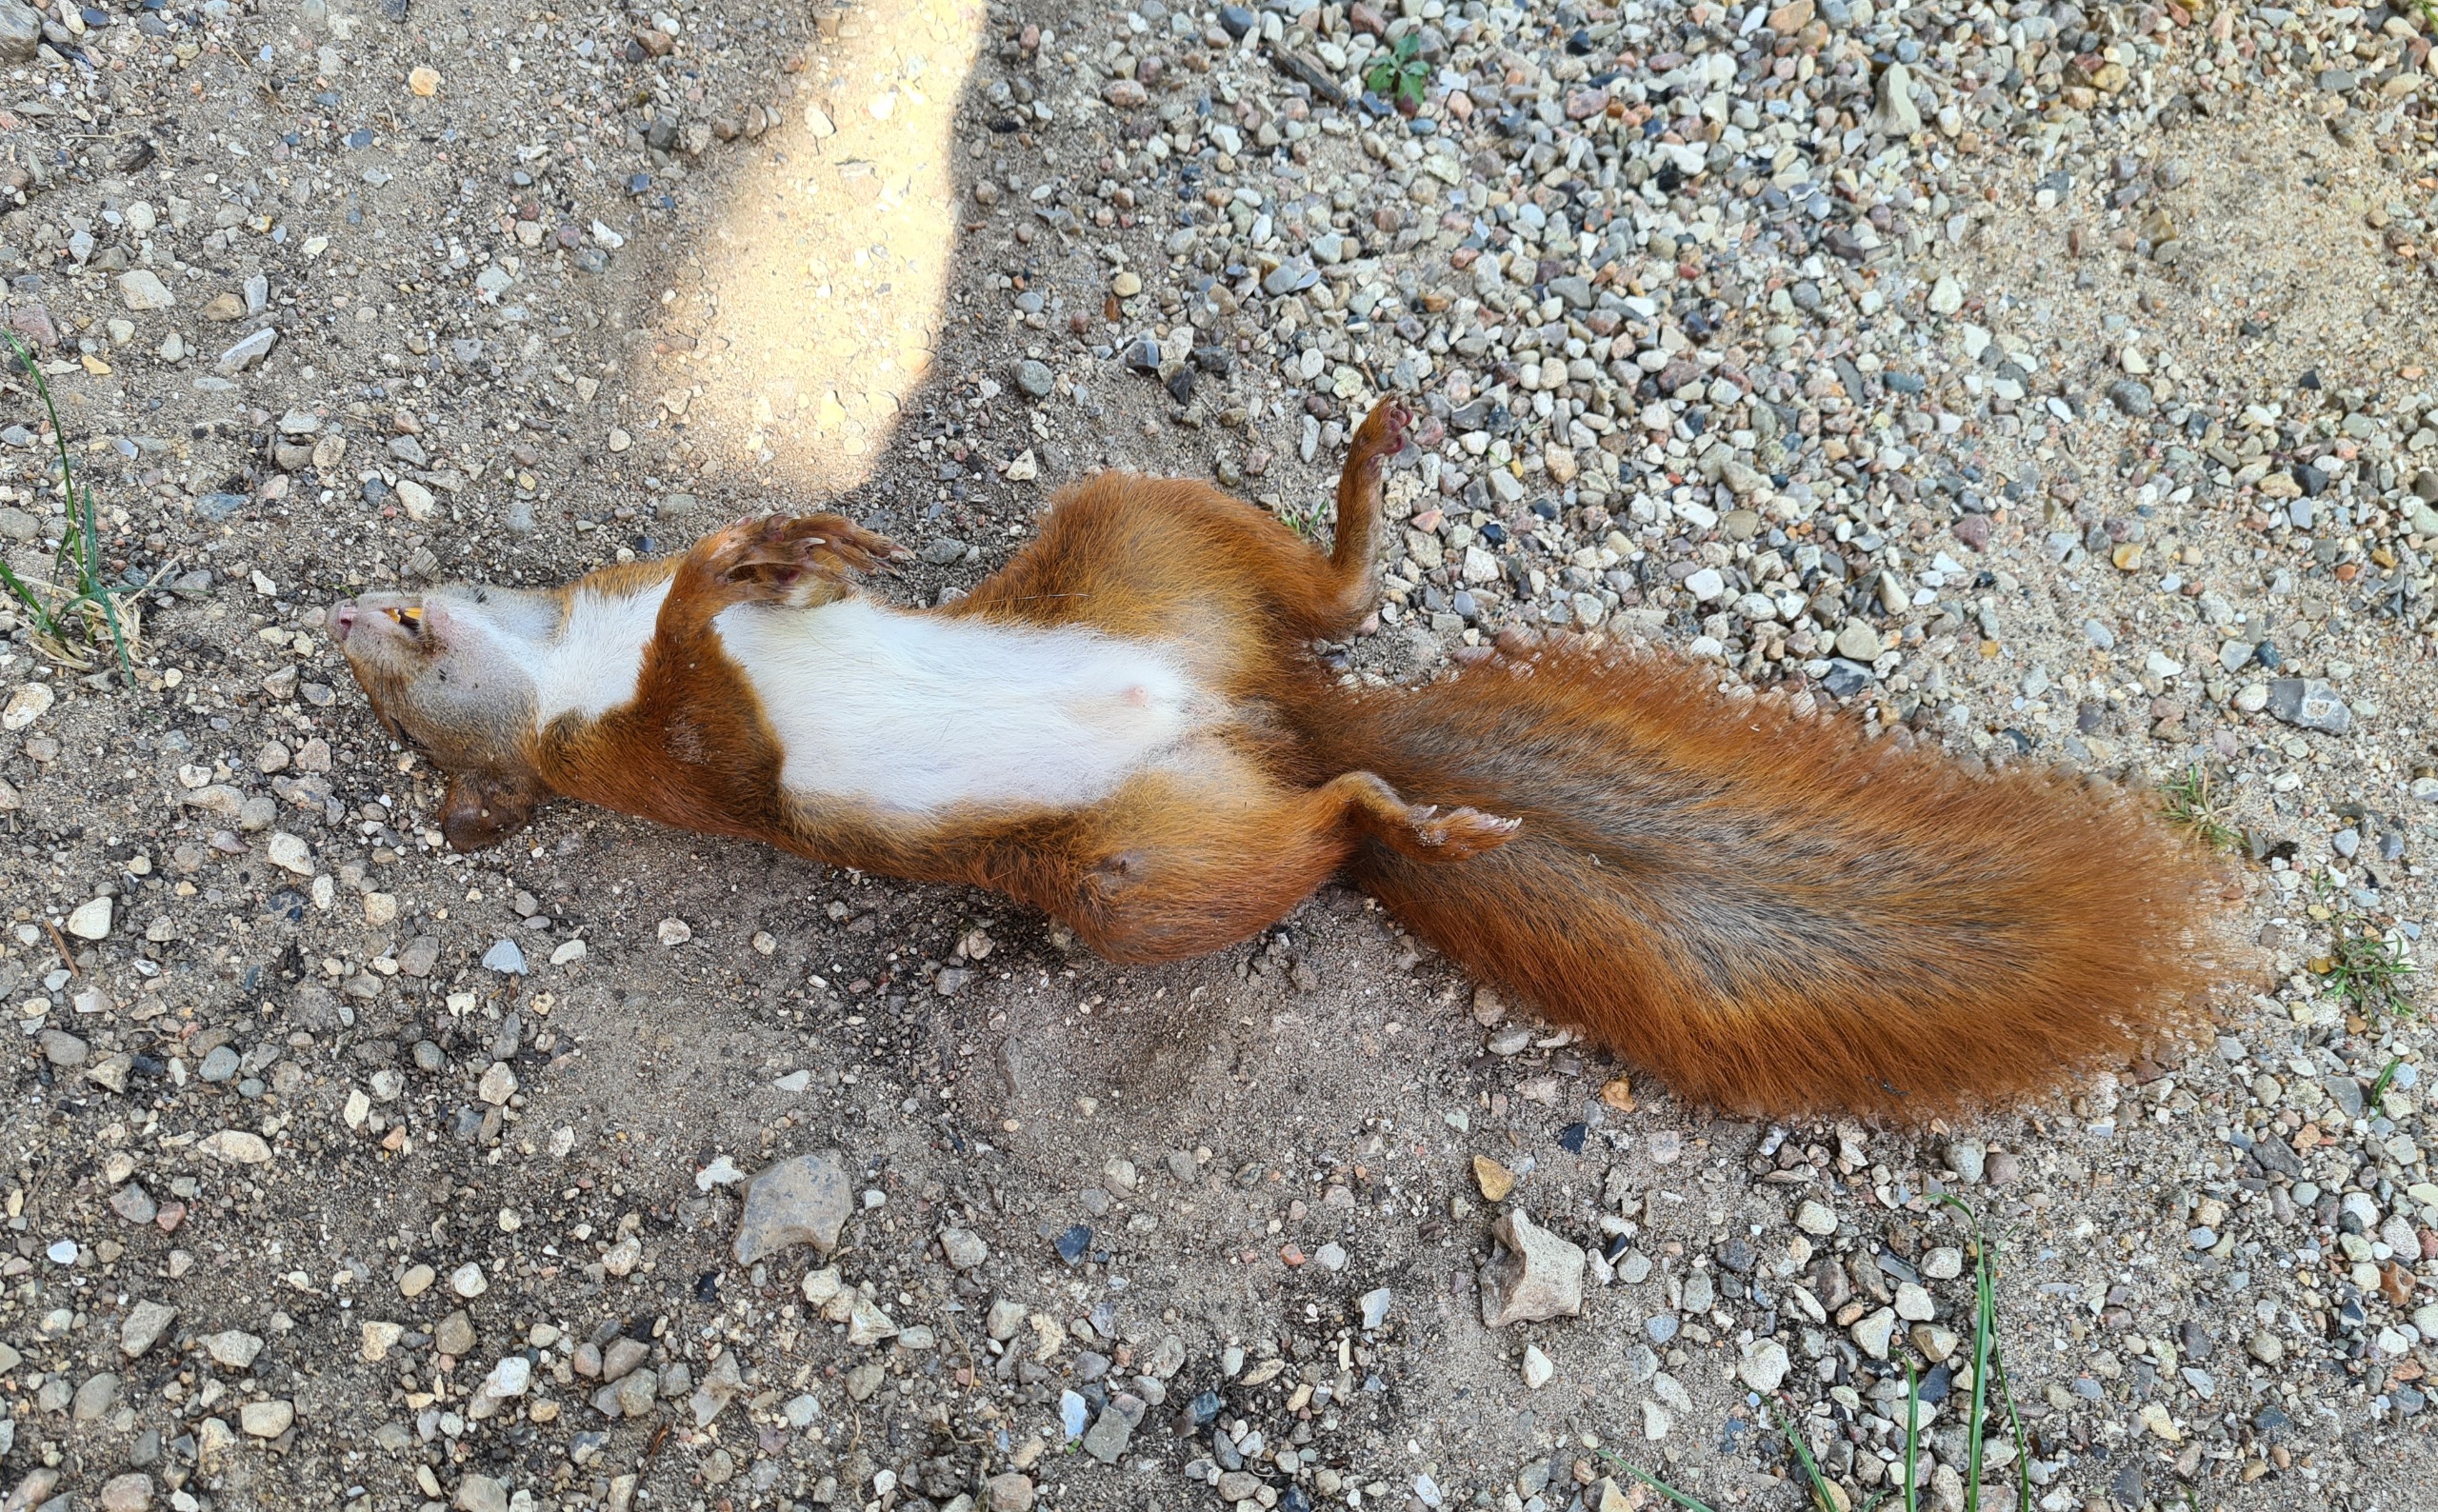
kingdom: Animalia
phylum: Chordata
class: Mammalia
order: Rodentia
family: Sciuridae
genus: Sciurus
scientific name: Sciurus vulgaris
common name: Egern
